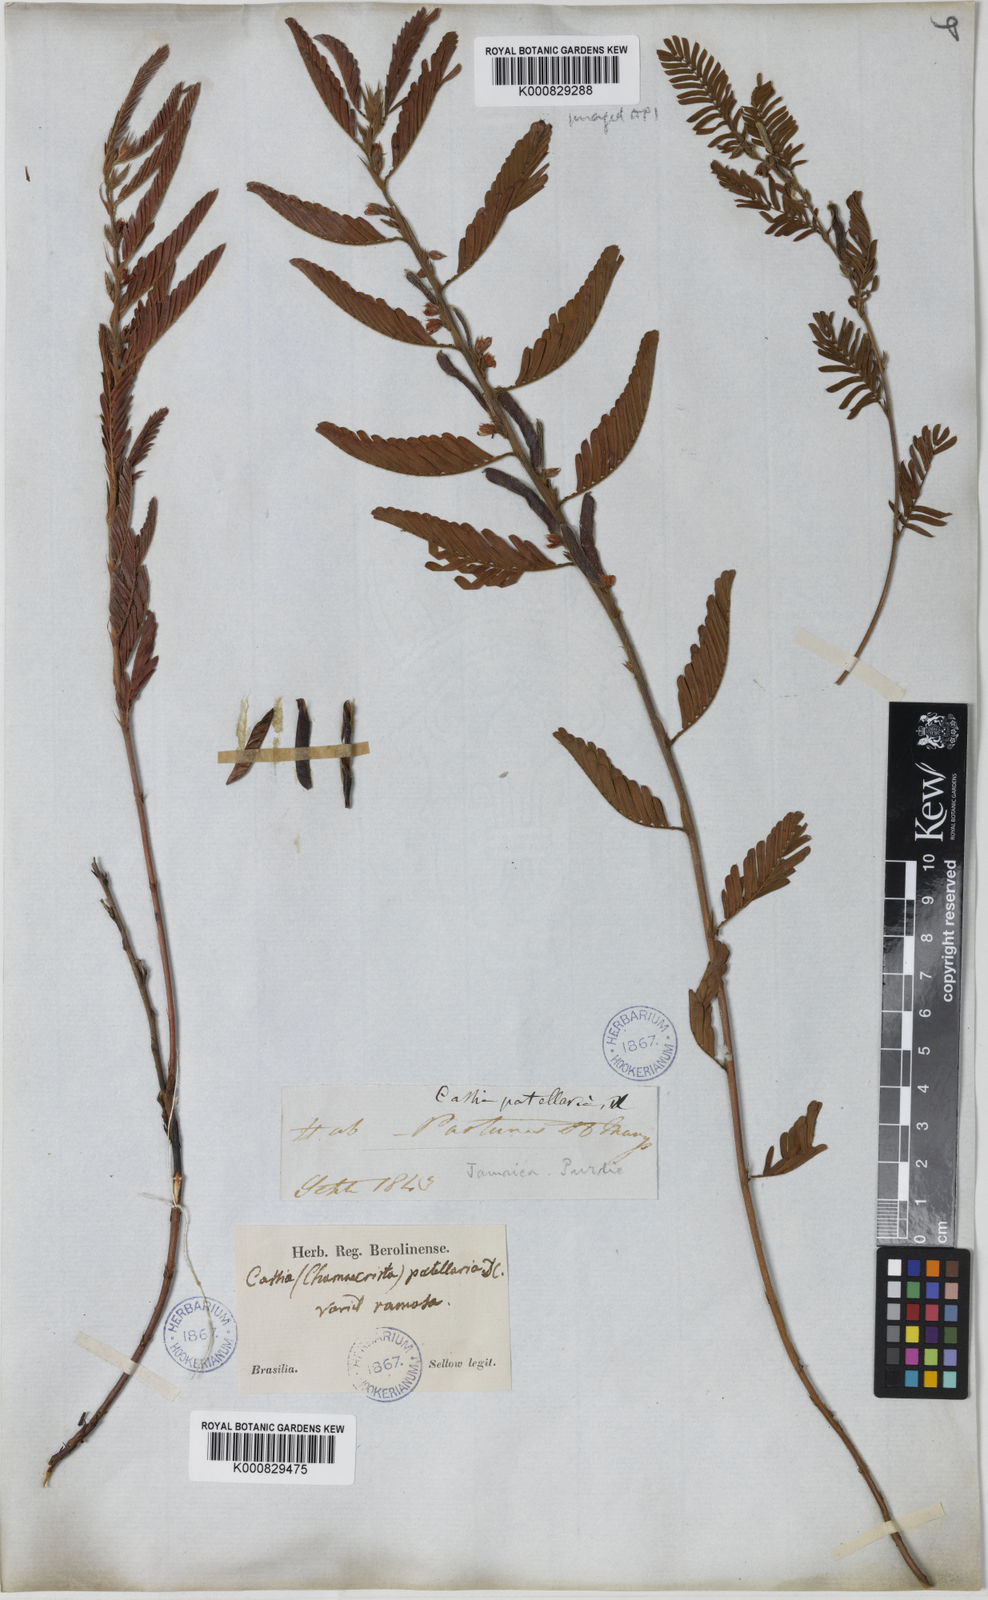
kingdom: Plantae
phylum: Tracheophyta
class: Magnoliopsida
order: Fabales
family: Fabaceae
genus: Chamaecrista
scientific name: Chamaecrista nictitans
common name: Sensitive cassia
